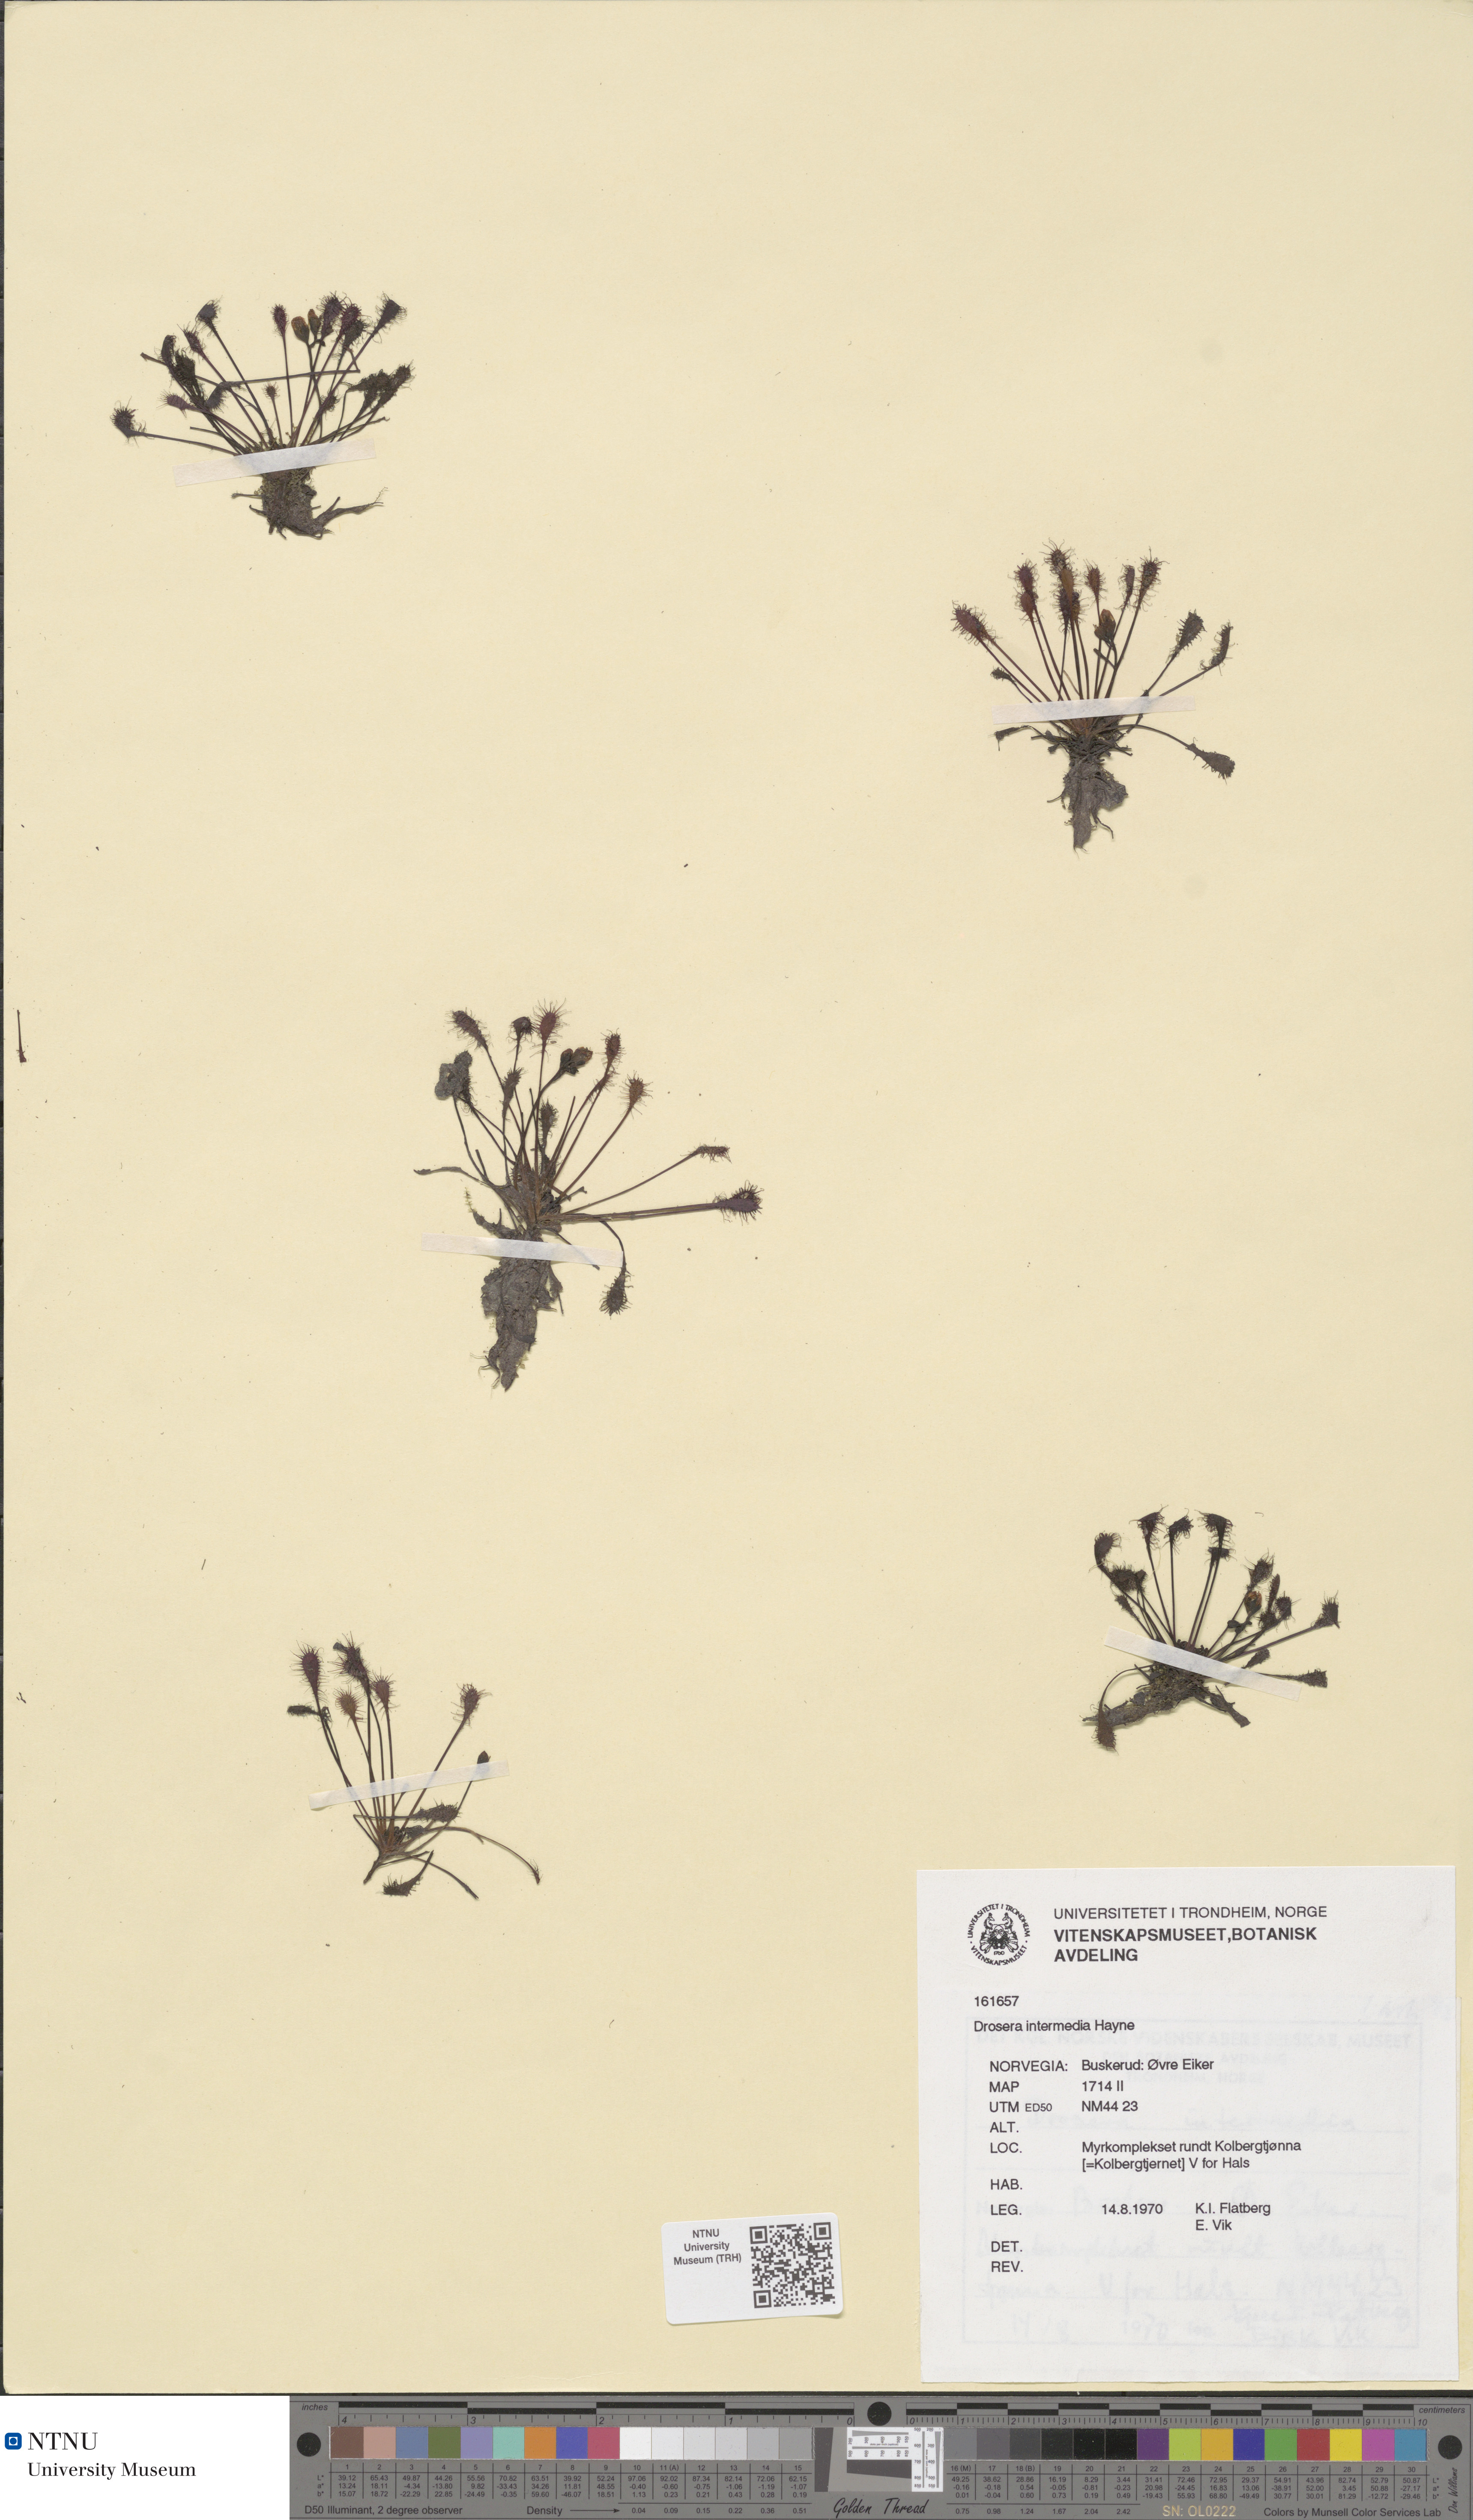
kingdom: Plantae
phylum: Tracheophyta
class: Magnoliopsida
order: Caryophyllales
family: Droseraceae
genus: Drosera
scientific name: Drosera intermedia
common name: Oblong-leaved sundew
